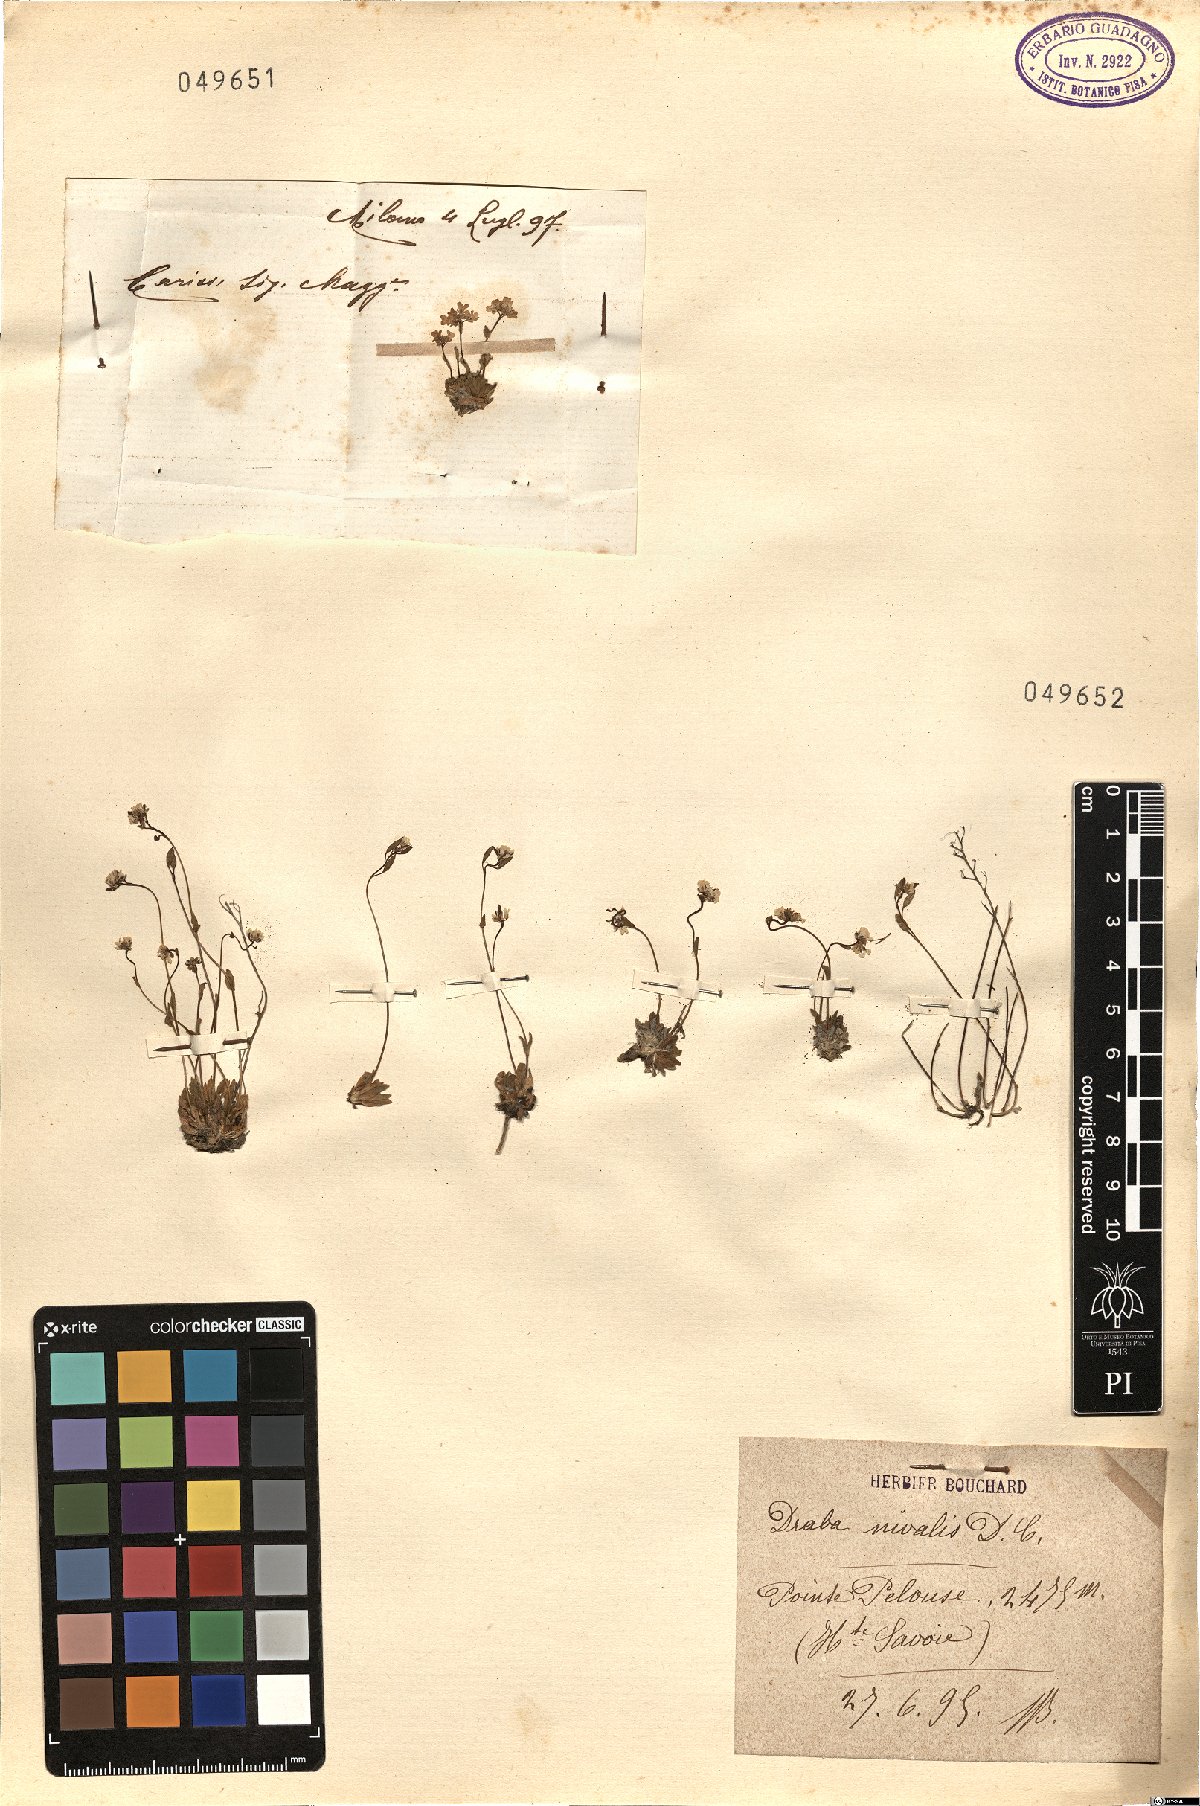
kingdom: Plantae
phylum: Tracheophyta
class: Magnoliopsida
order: Brassicales
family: Brassicaceae
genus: Draba
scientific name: Draba
